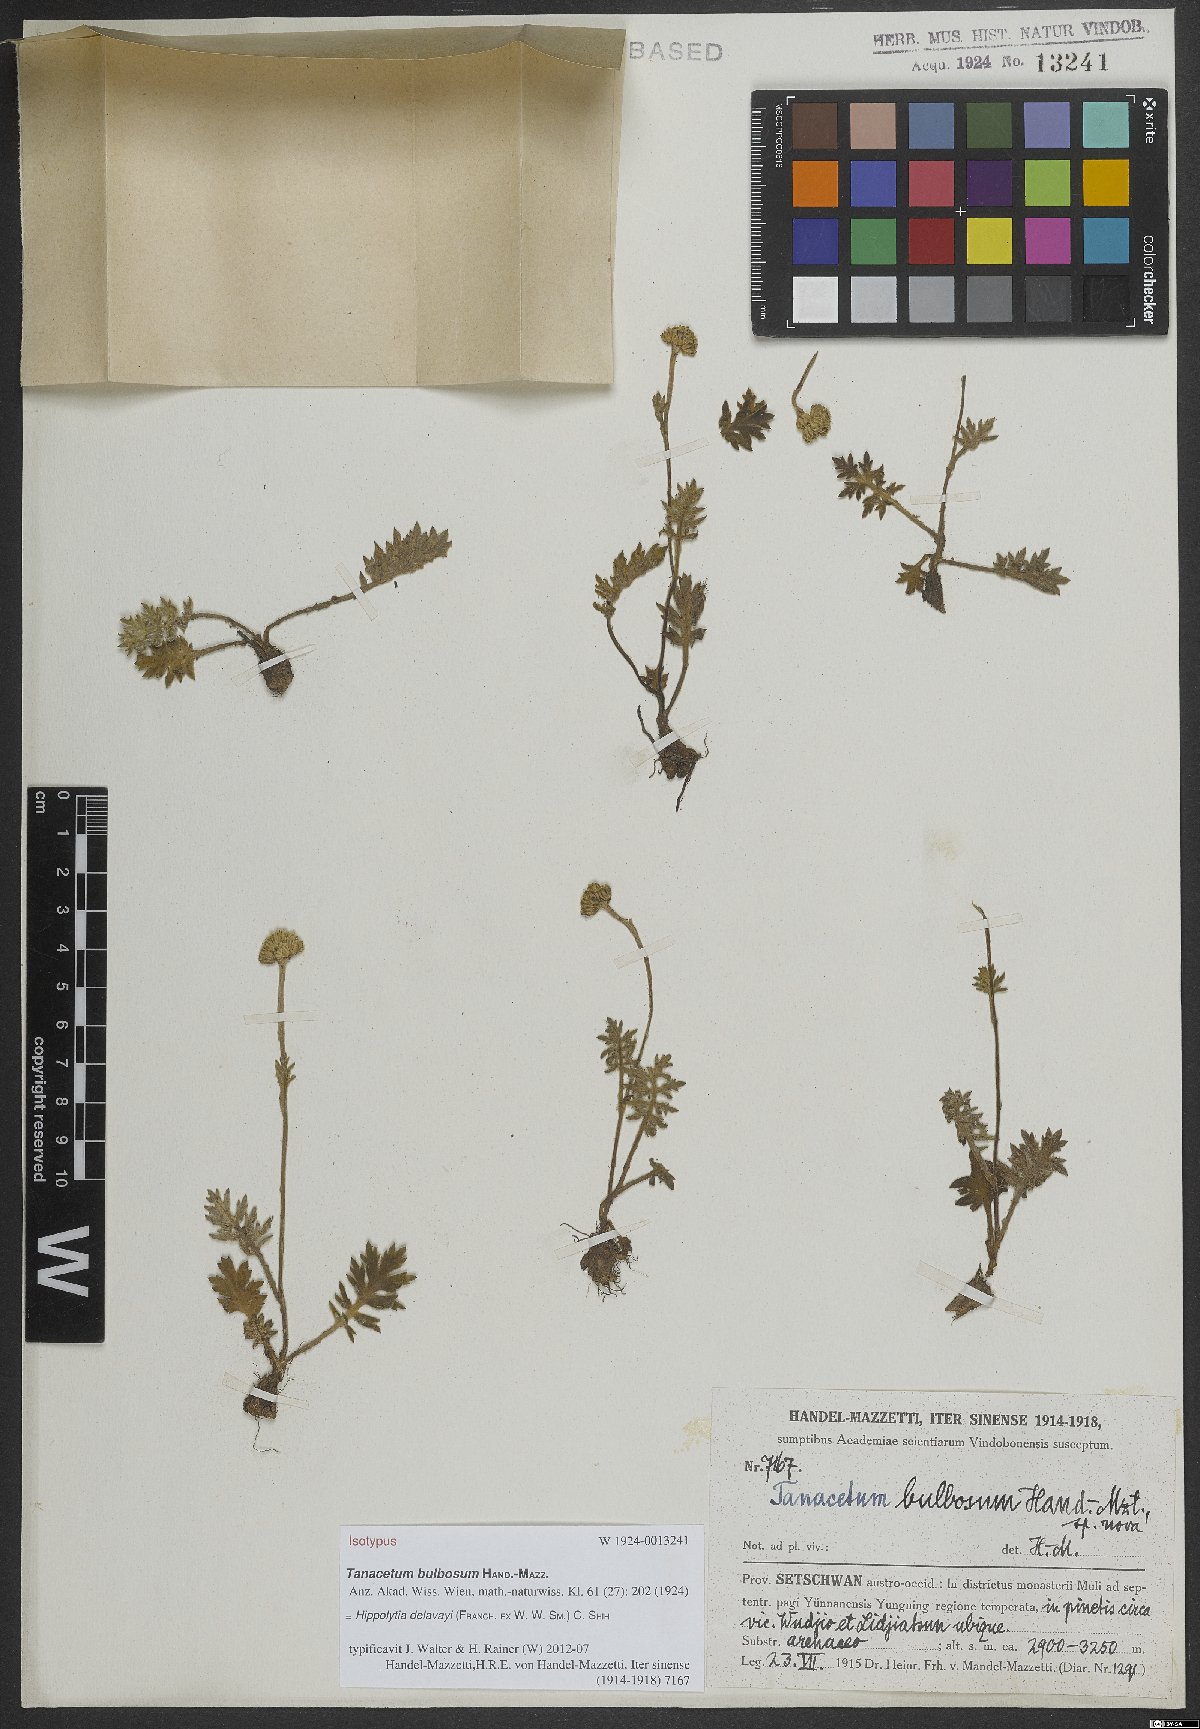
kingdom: Plantae
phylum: Tracheophyta
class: Magnoliopsida
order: Asterales
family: Asteraceae
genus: Hippolytia
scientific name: Hippolytia delavayi
